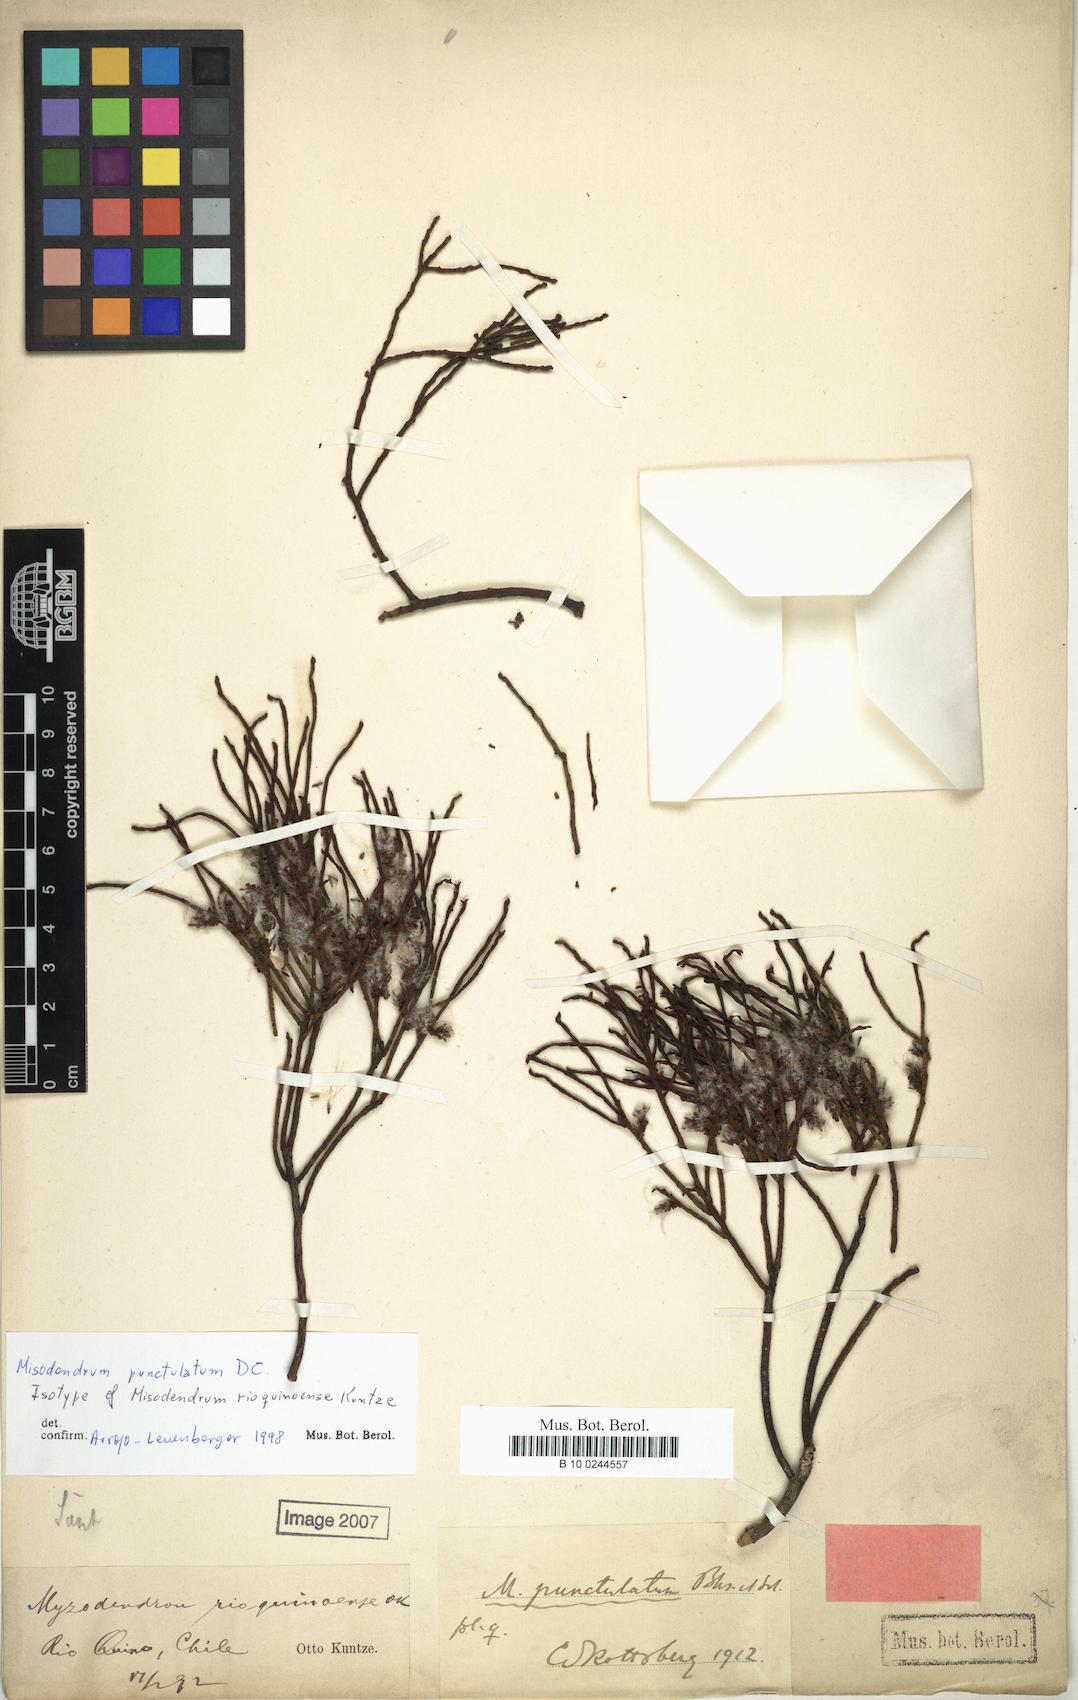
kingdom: Plantae
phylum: Tracheophyta
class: Magnoliopsida
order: Santalales
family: Misodendraceae
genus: Misodendrum
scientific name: Misodendrum punctulatum
